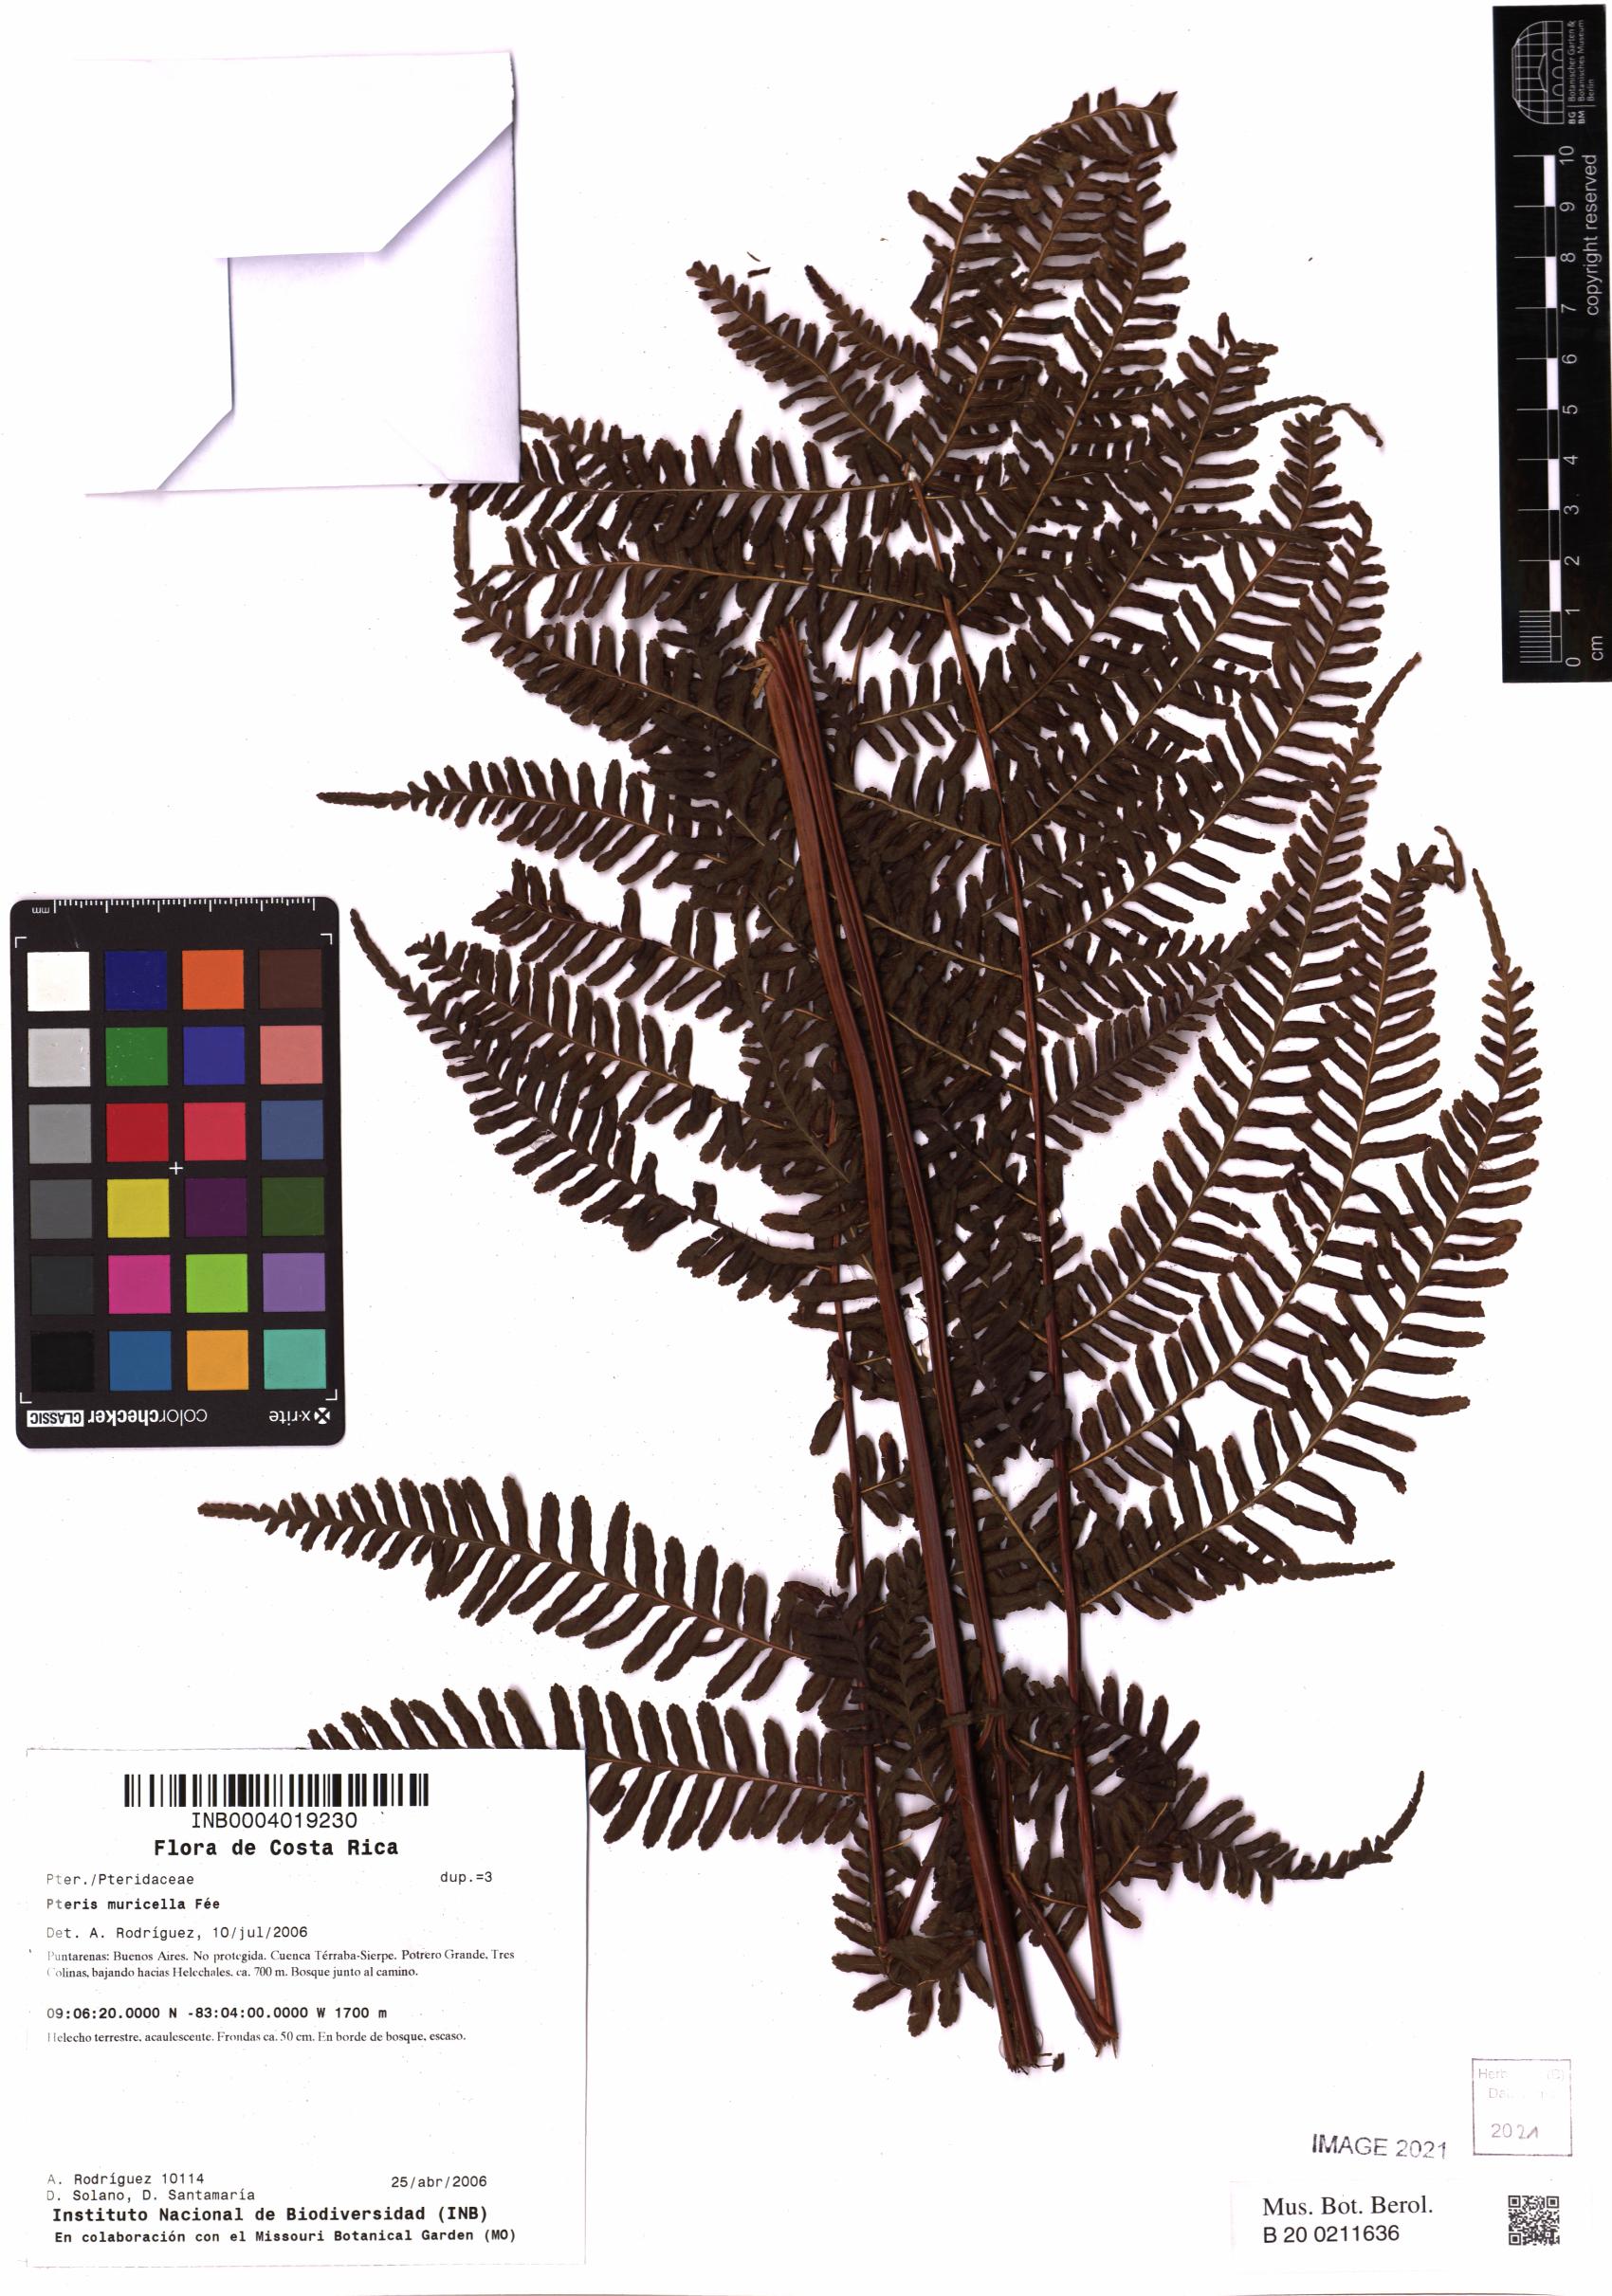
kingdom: Plantae
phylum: Tracheophyta
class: Polypodiopsida
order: Polypodiales
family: Pteridaceae
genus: Pteris
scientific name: Pteris muricella
